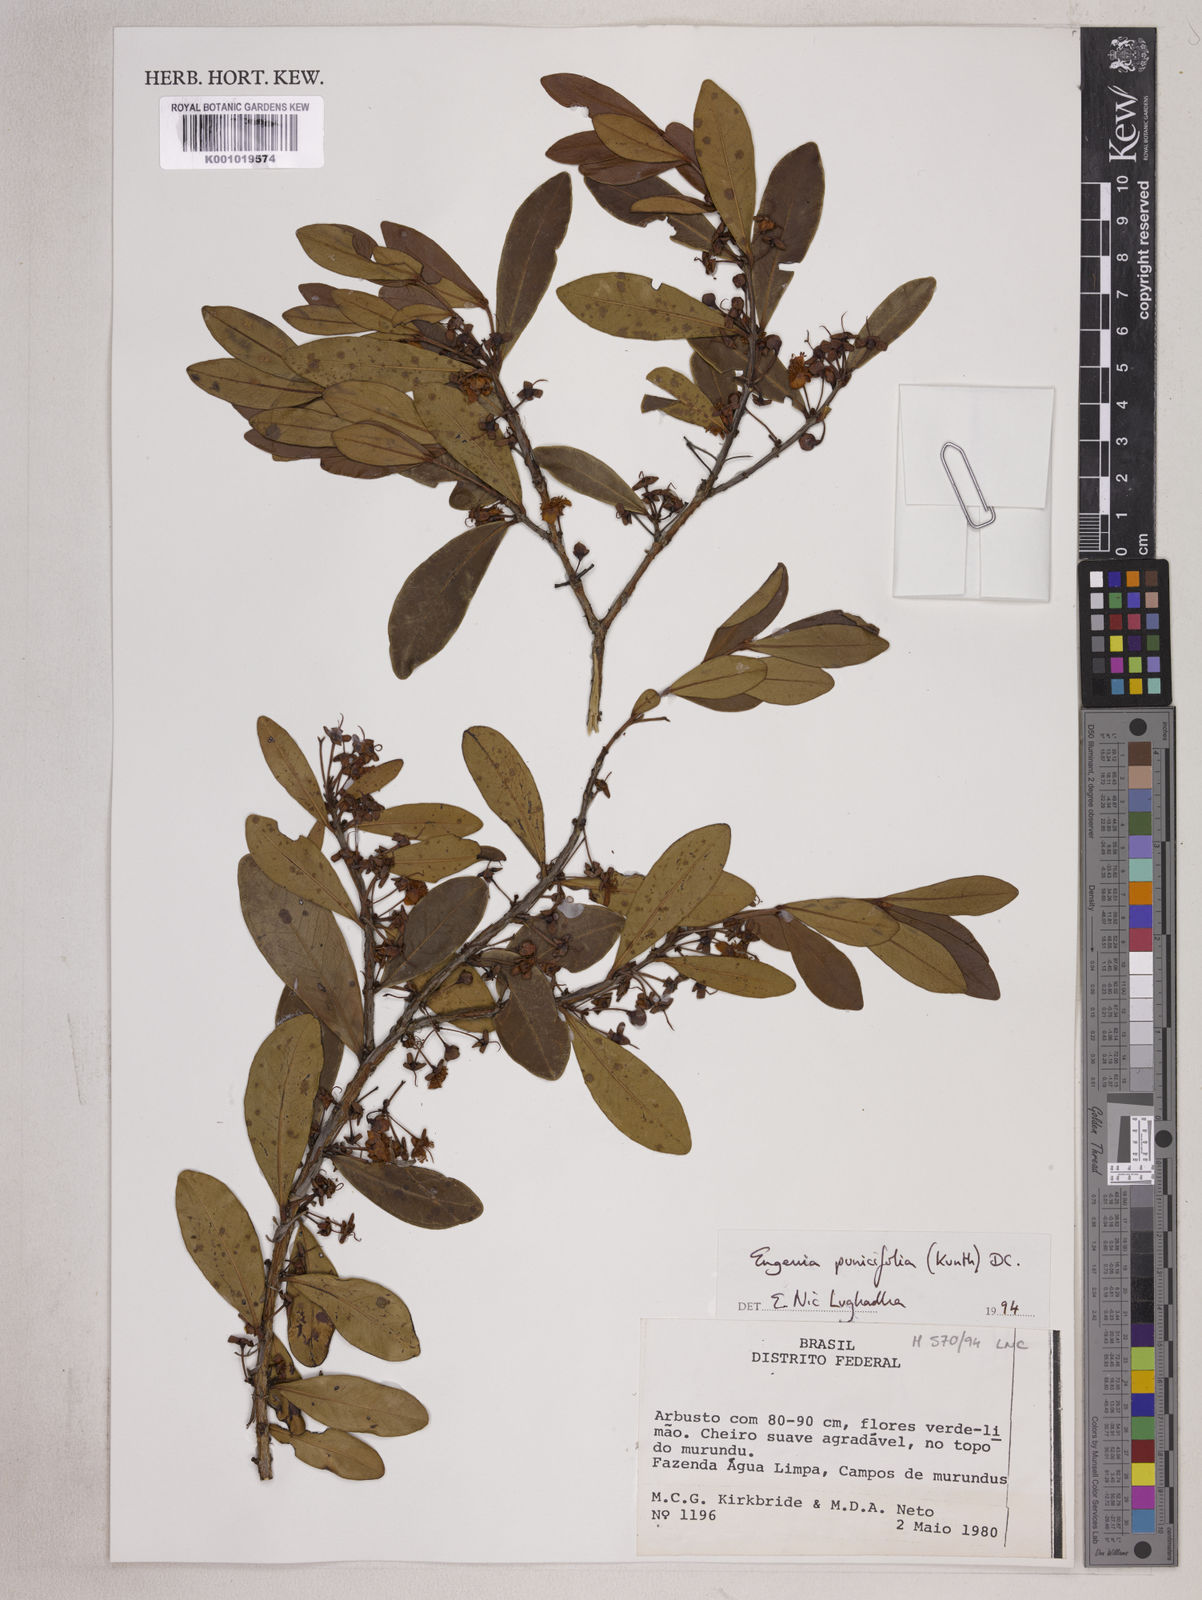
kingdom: Plantae
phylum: Tracheophyta
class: Magnoliopsida
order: Myrtales
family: Myrtaceae
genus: Eugenia
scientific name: Eugenia punicifolia
